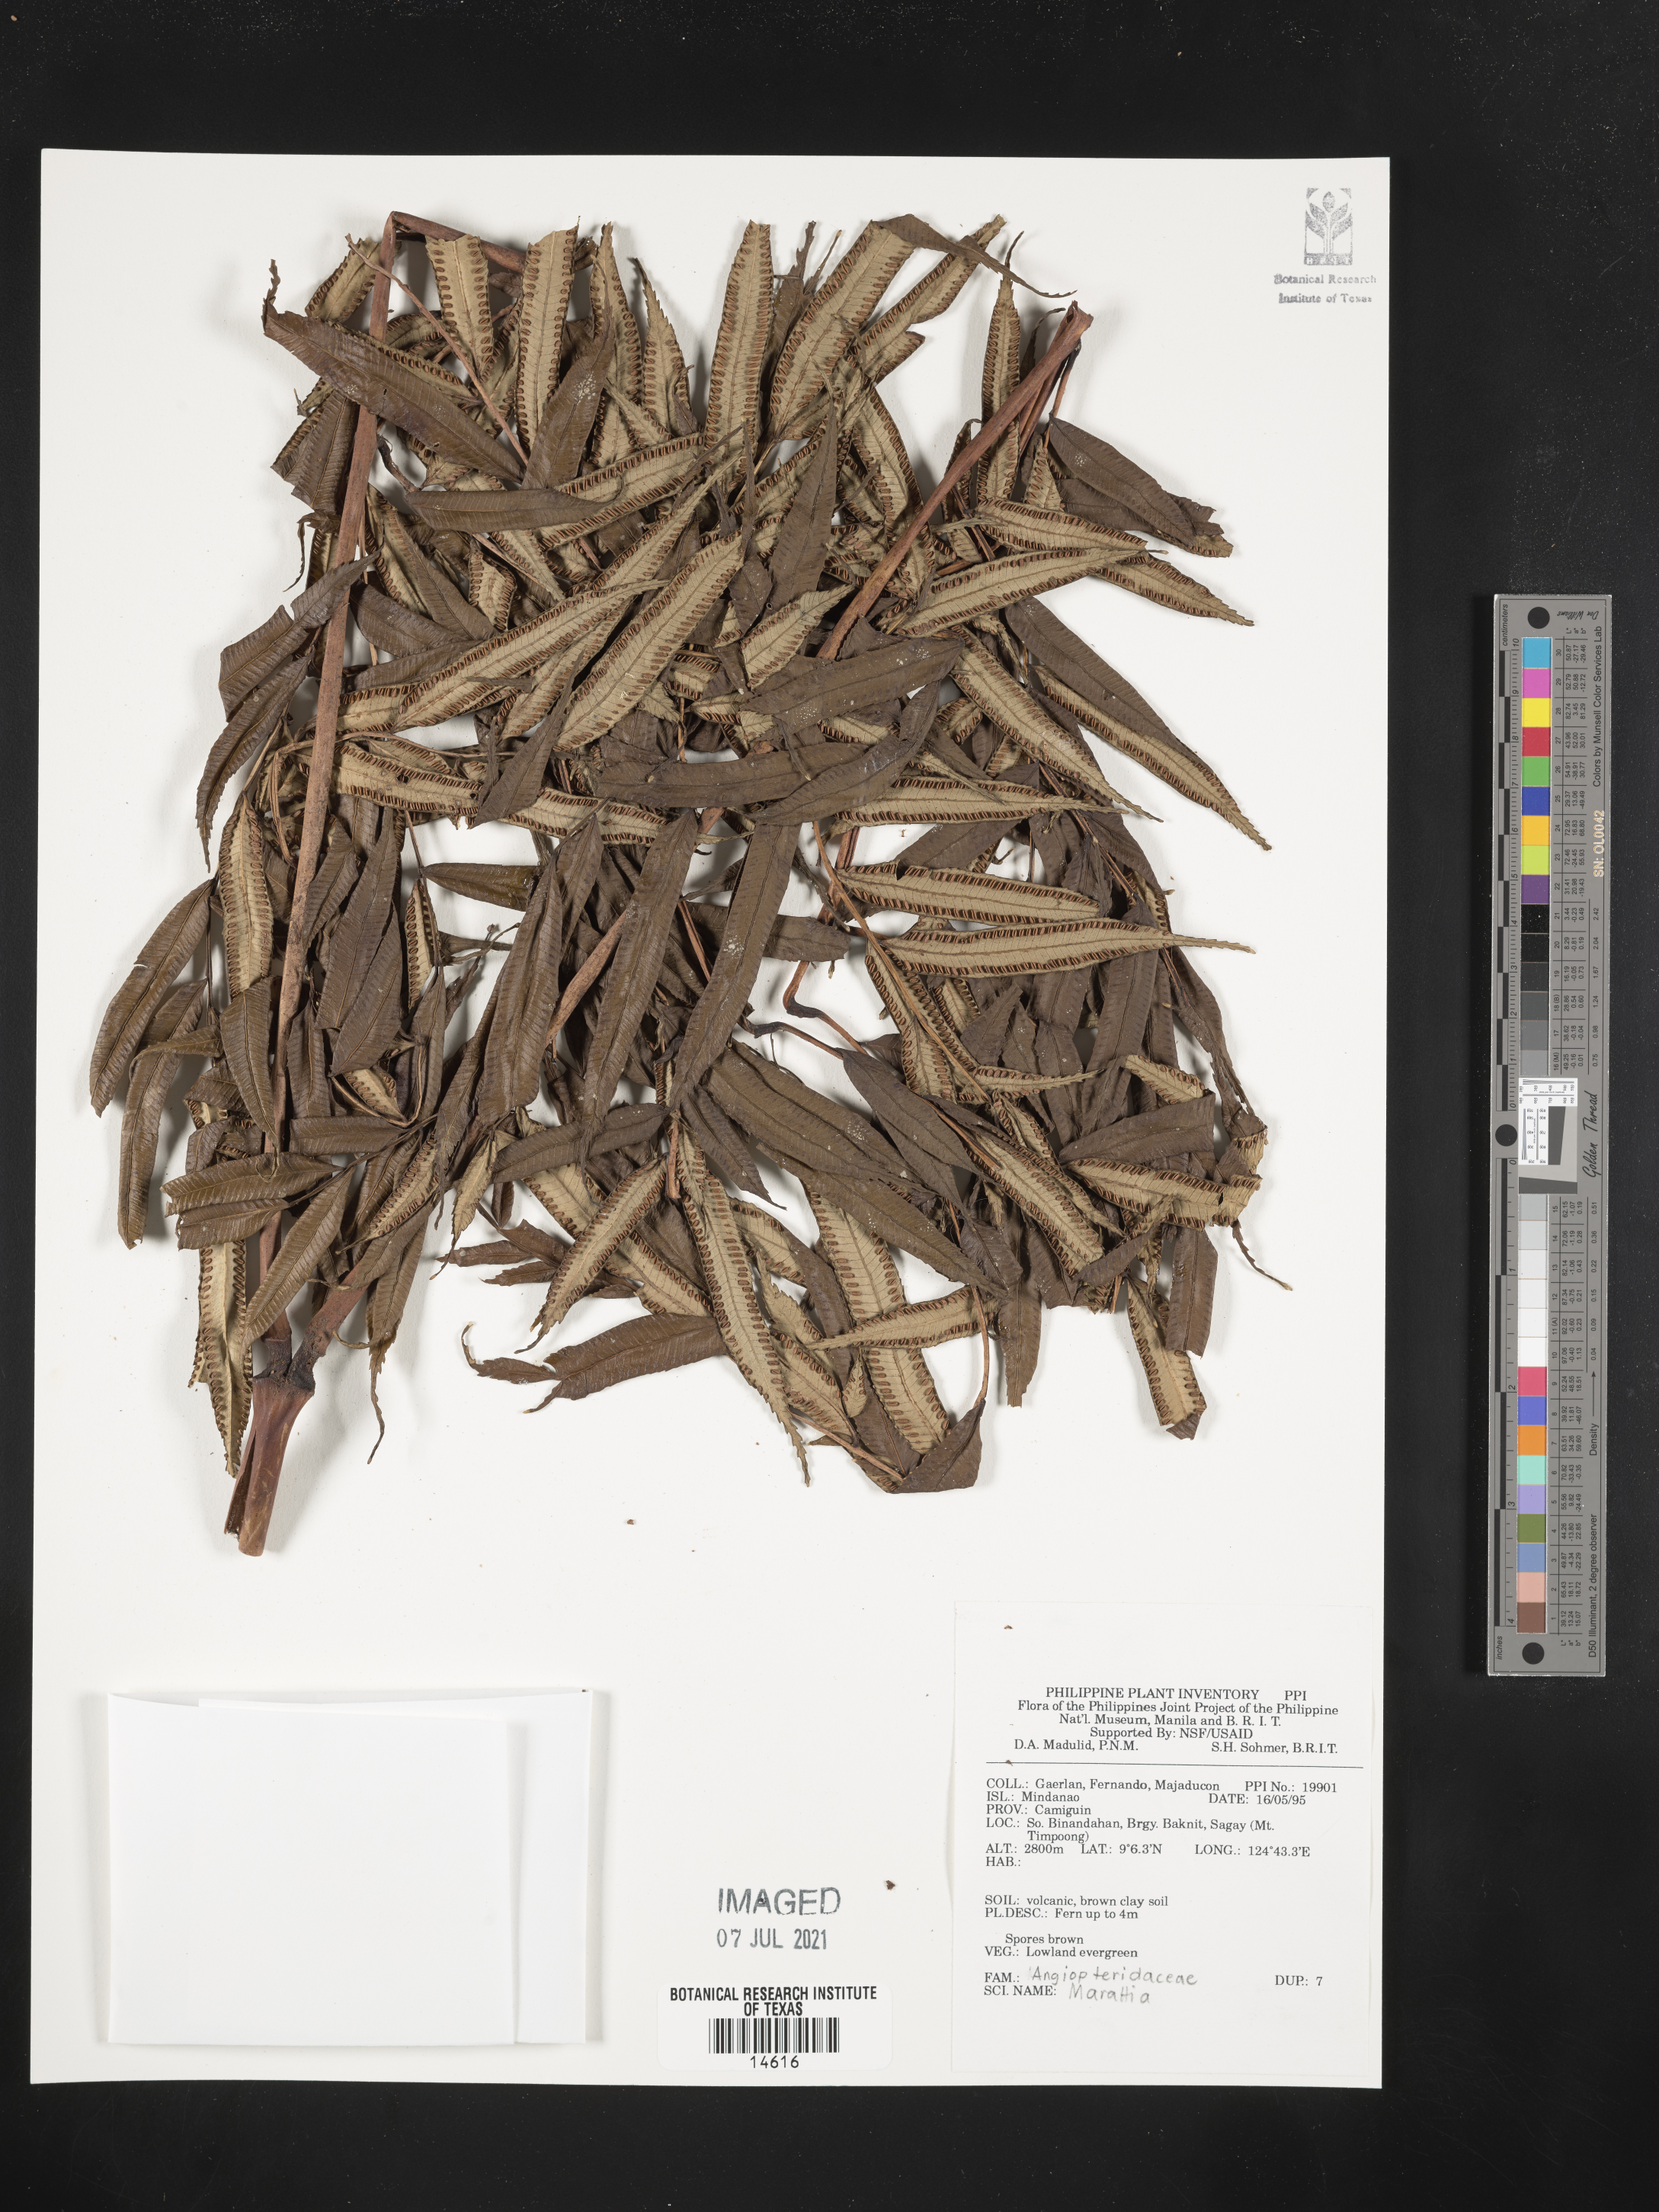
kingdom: Plantae
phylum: Tracheophyta
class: Polypodiopsida
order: Marattiales
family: Marattiaceae
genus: Marattia
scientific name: Marattia
